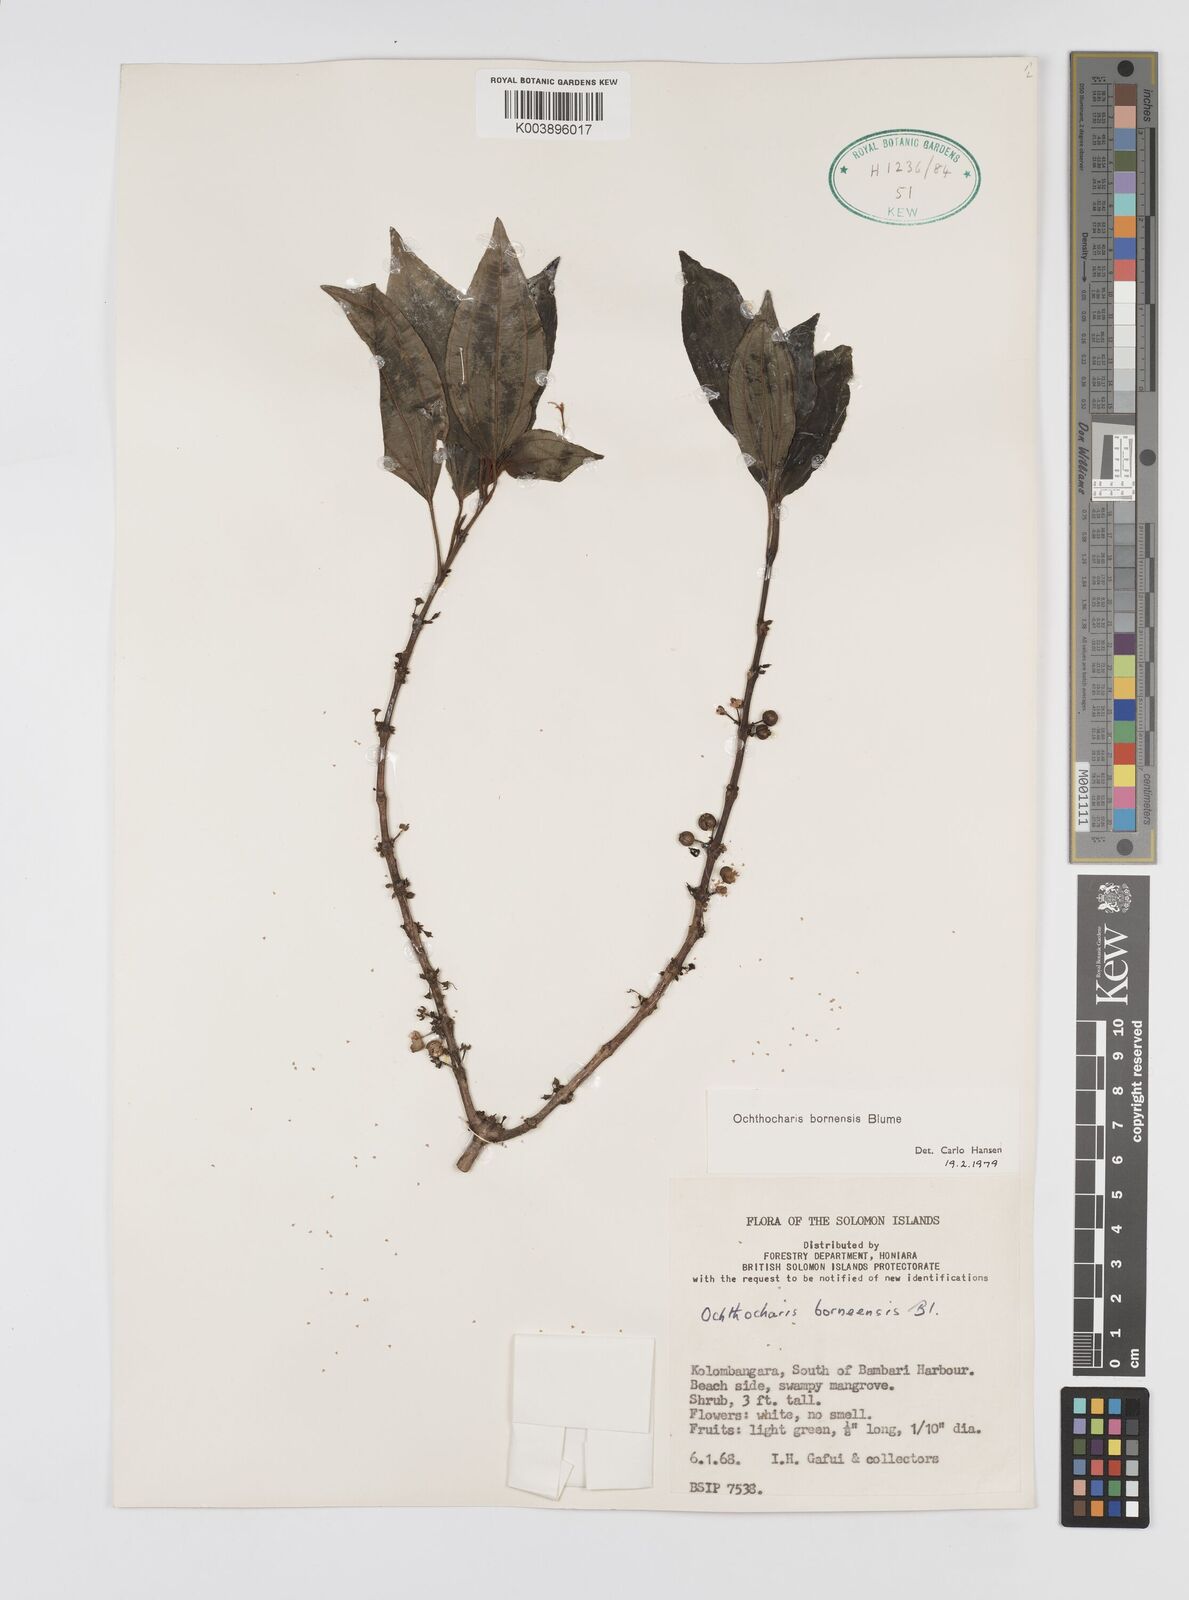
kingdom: Plantae
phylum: Tracheophyta
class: Magnoliopsida
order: Myrtales
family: Melastomataceae
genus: Ochthocharis
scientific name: Ochthocharis bornensis
